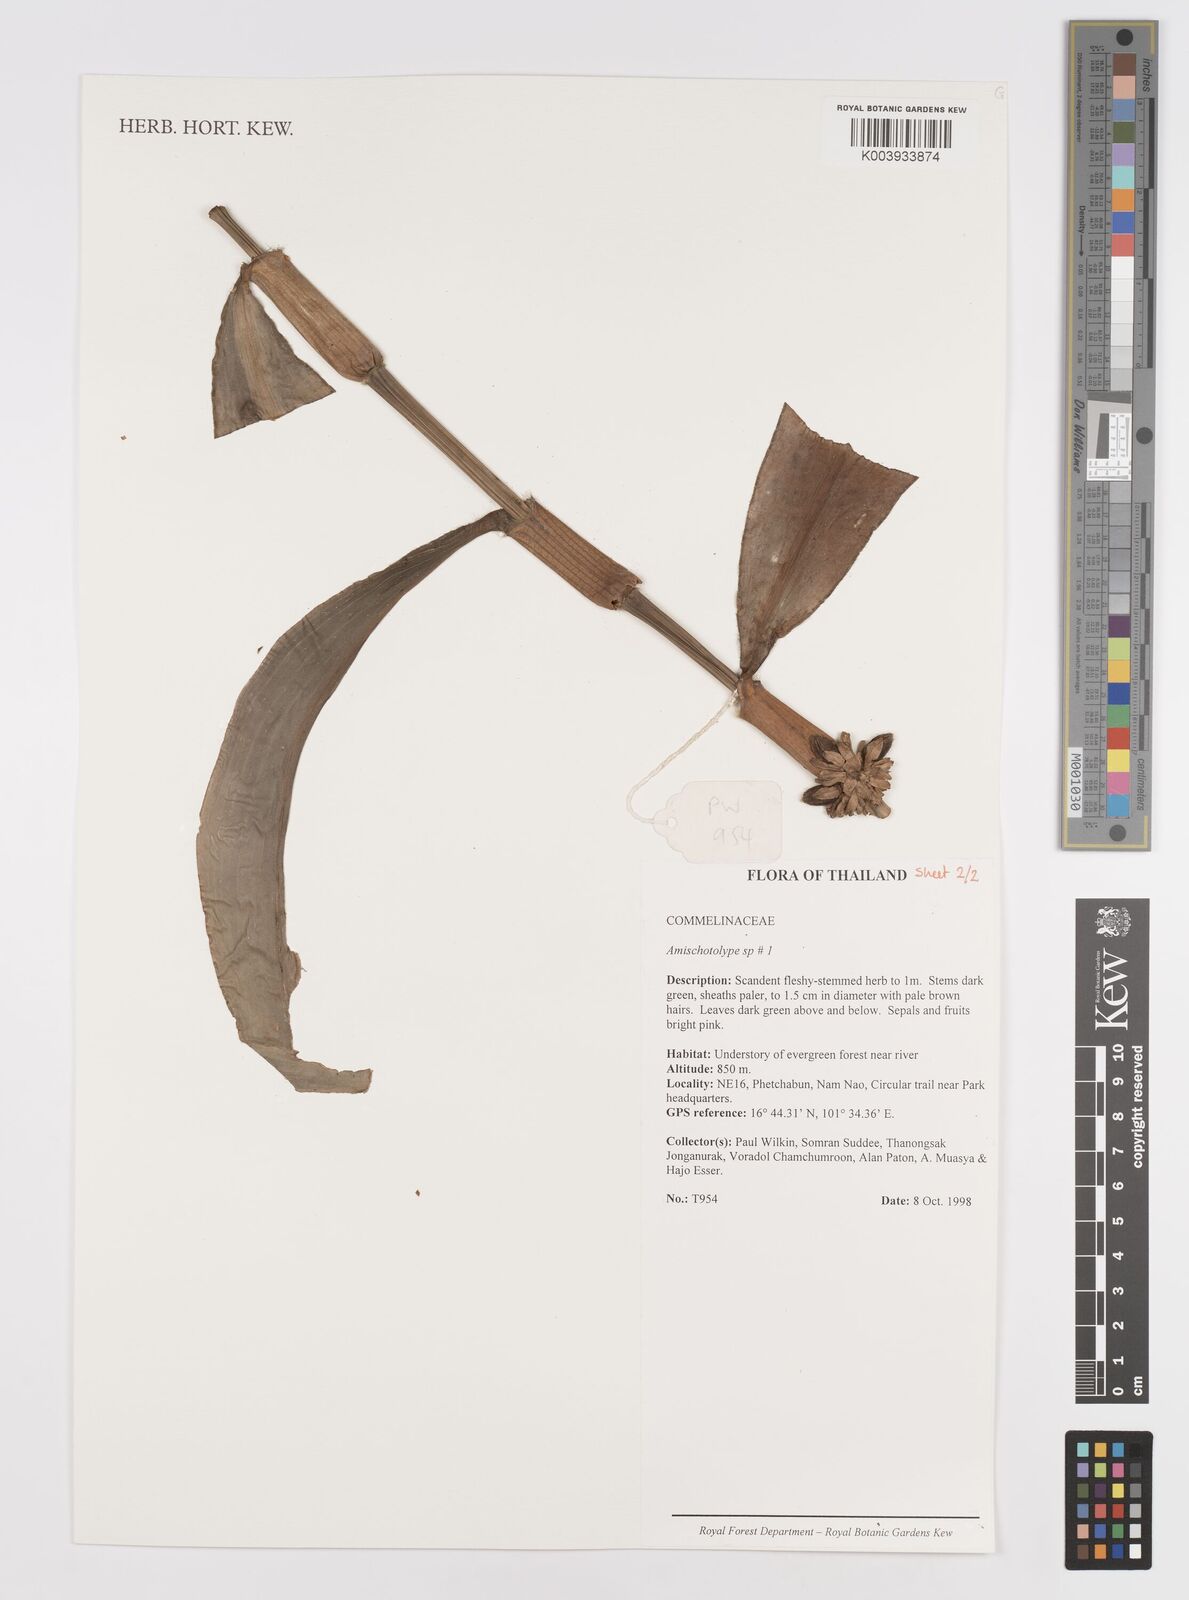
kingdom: Plantae
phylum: Tracheophyta
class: Liliopsida
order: Commelinales
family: Commelinaceae
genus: Amischotolype
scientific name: Amischotolype
